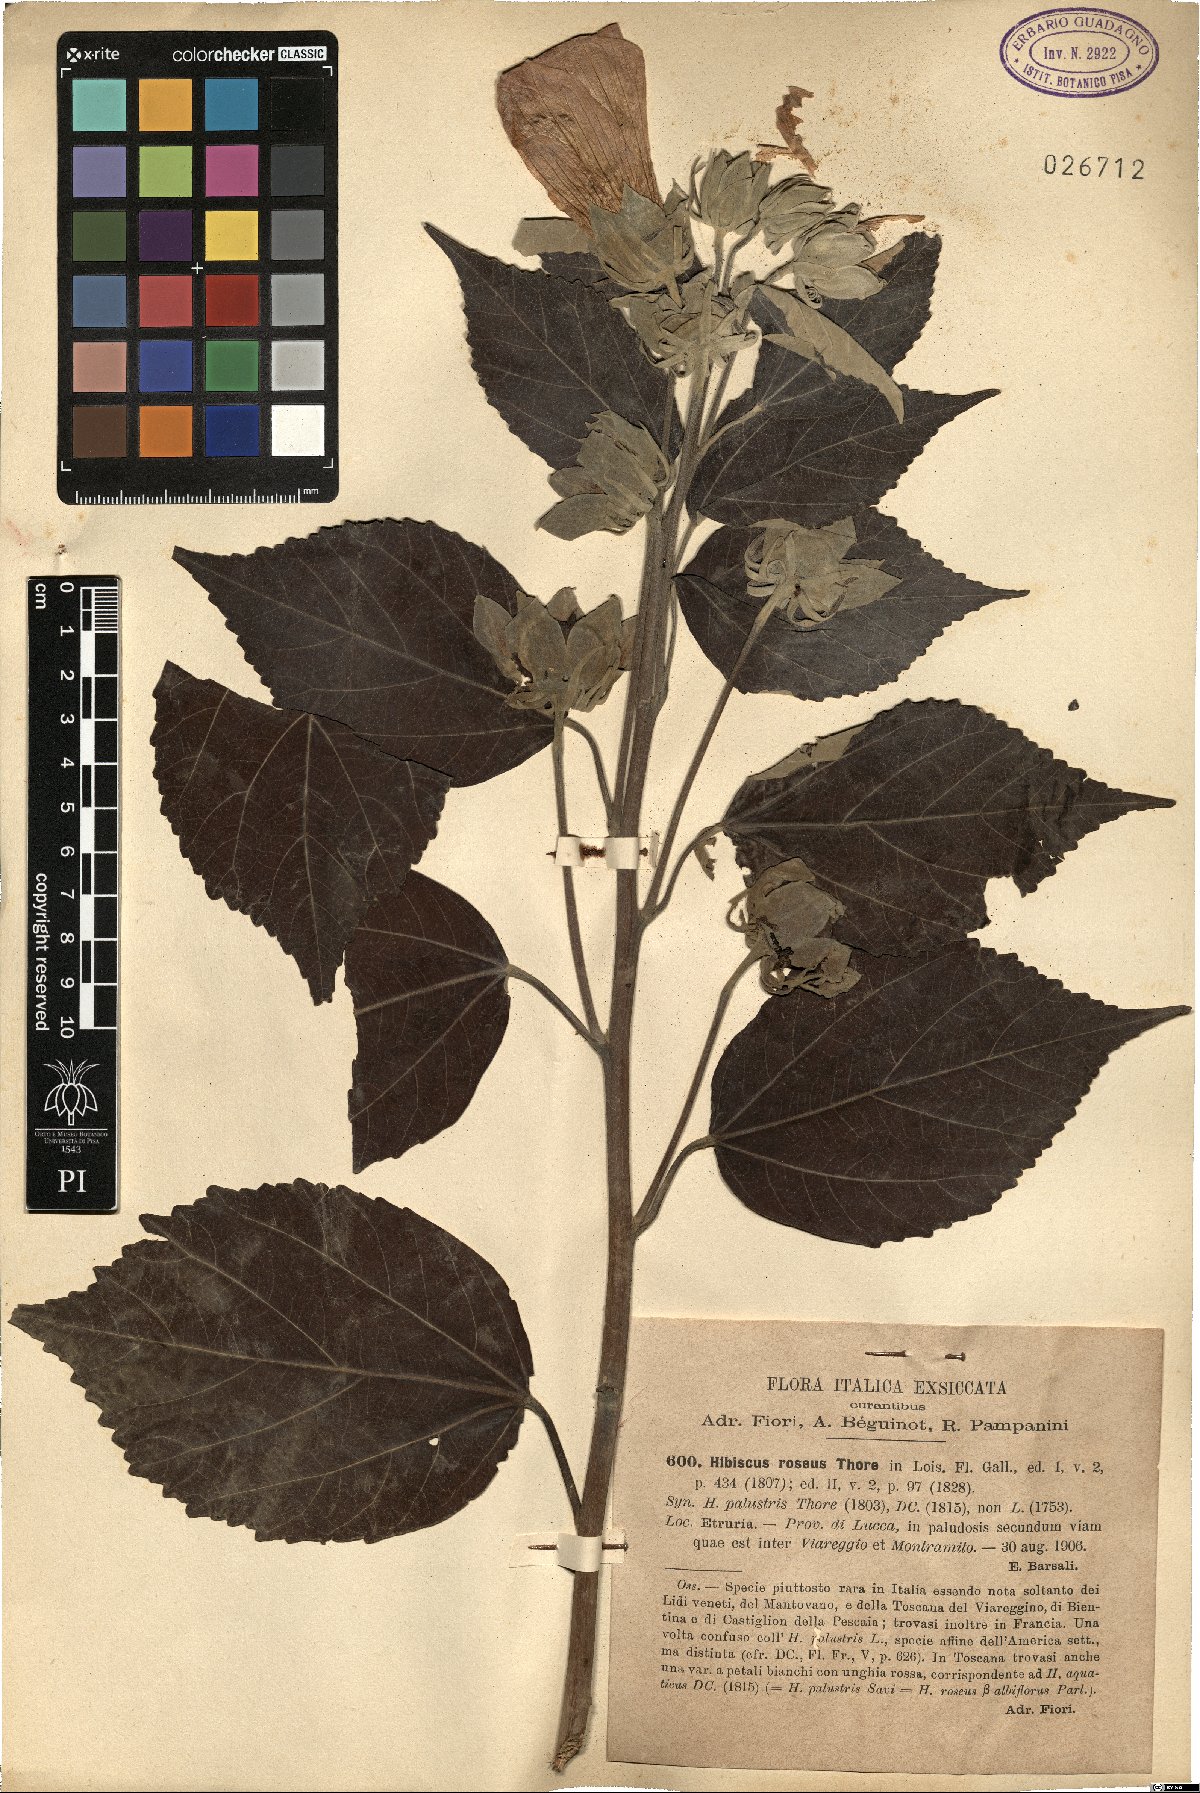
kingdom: Plantae
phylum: Tracheophyta
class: Magnoliopsida
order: Malvales
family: Malvaceae
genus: Hibiscus
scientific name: Hibiscus roseus
